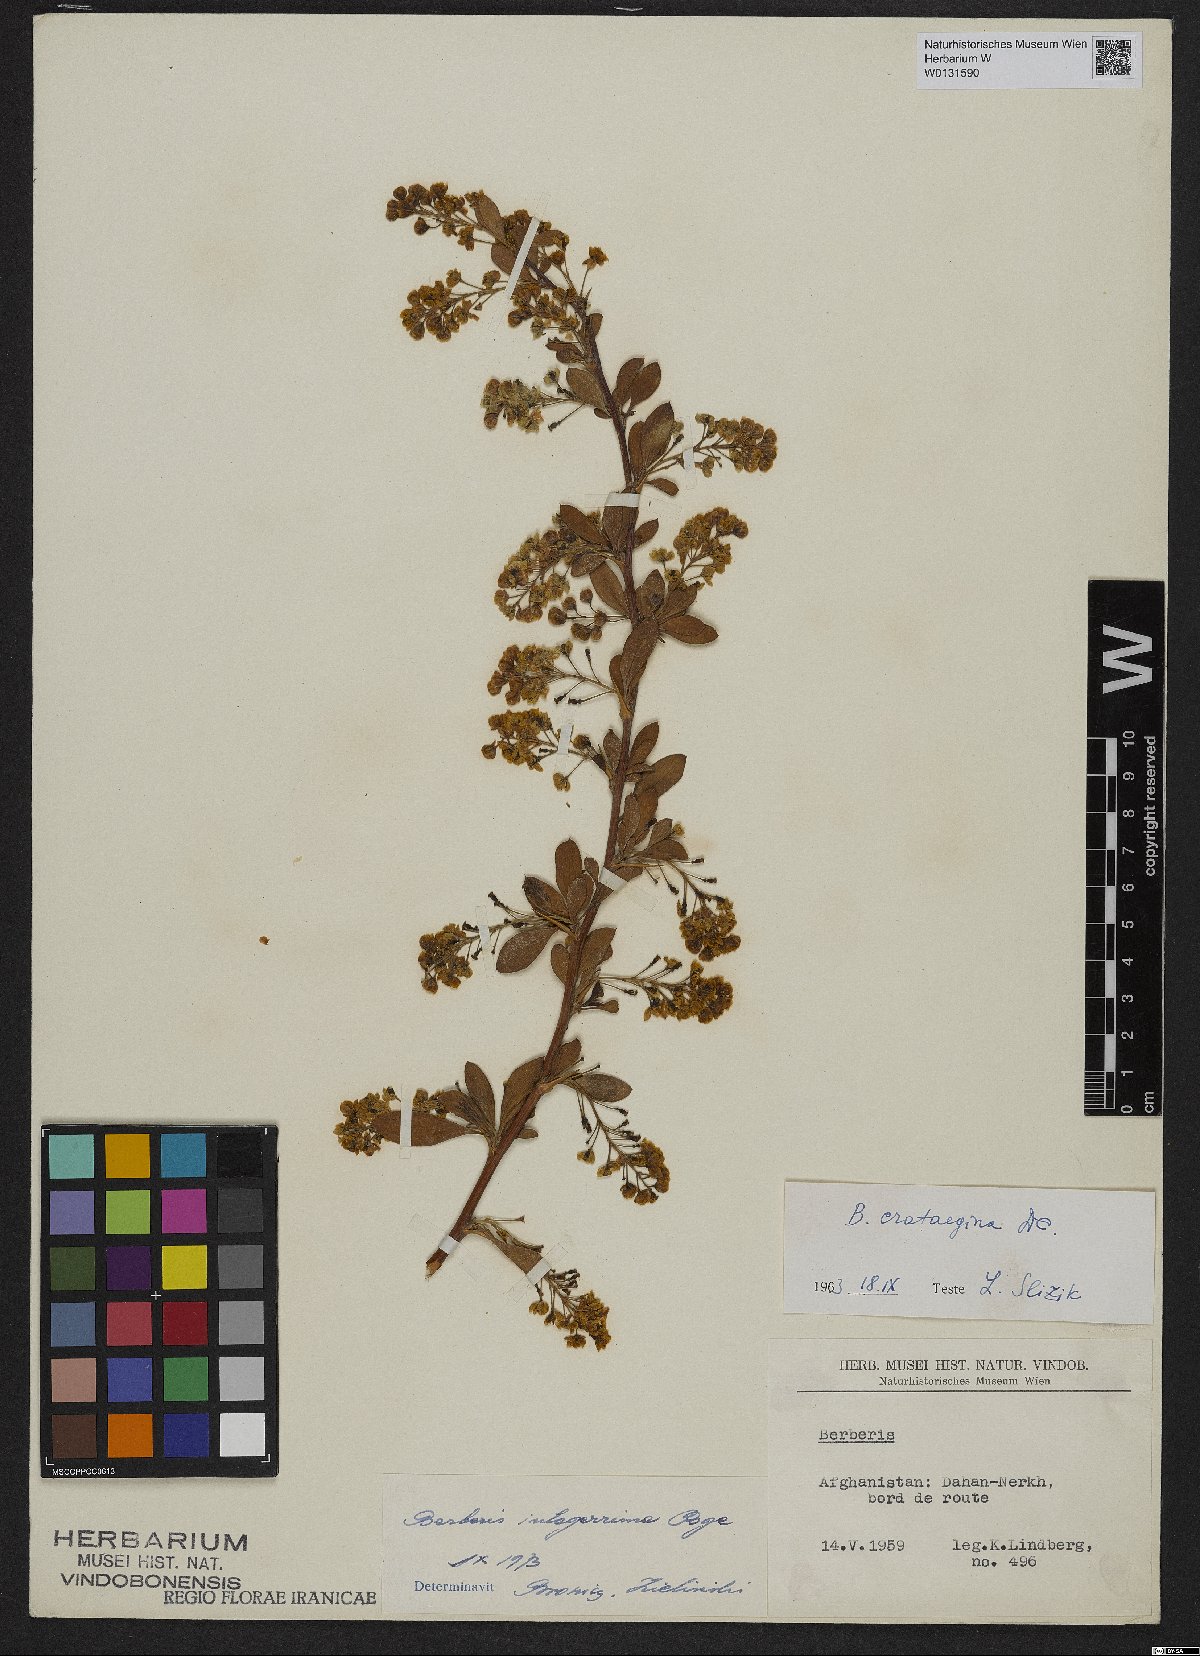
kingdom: Plantae
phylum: Tracheophyta
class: Magnoliopsida
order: Ranunculales
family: Berberidaceae
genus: Berberis
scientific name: Berberis integerrima
